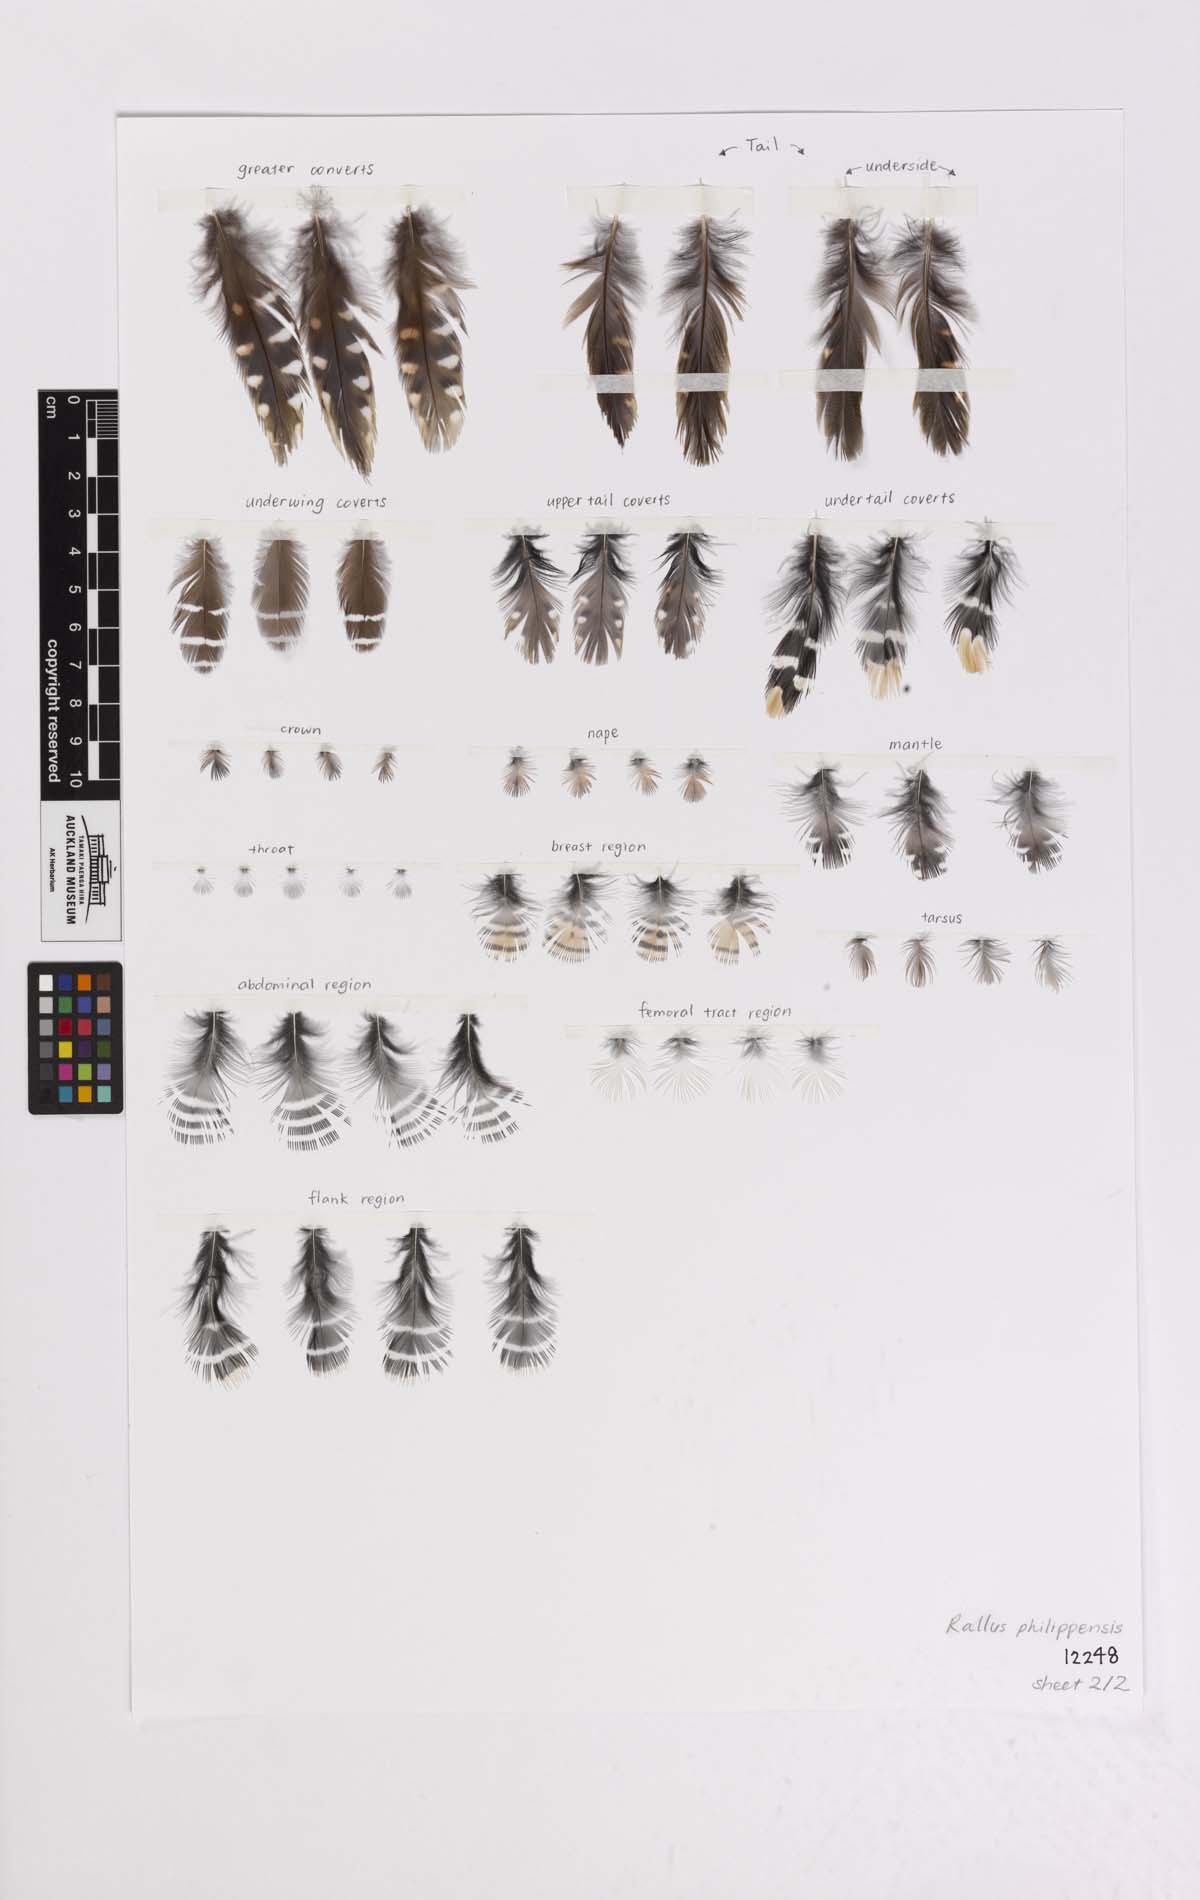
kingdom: Animalia
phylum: Chordata
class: Aves
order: Gruiformes
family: Rallidae
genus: Gallirallus
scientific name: Gallirallus philippensis
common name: Buff-banded rail
